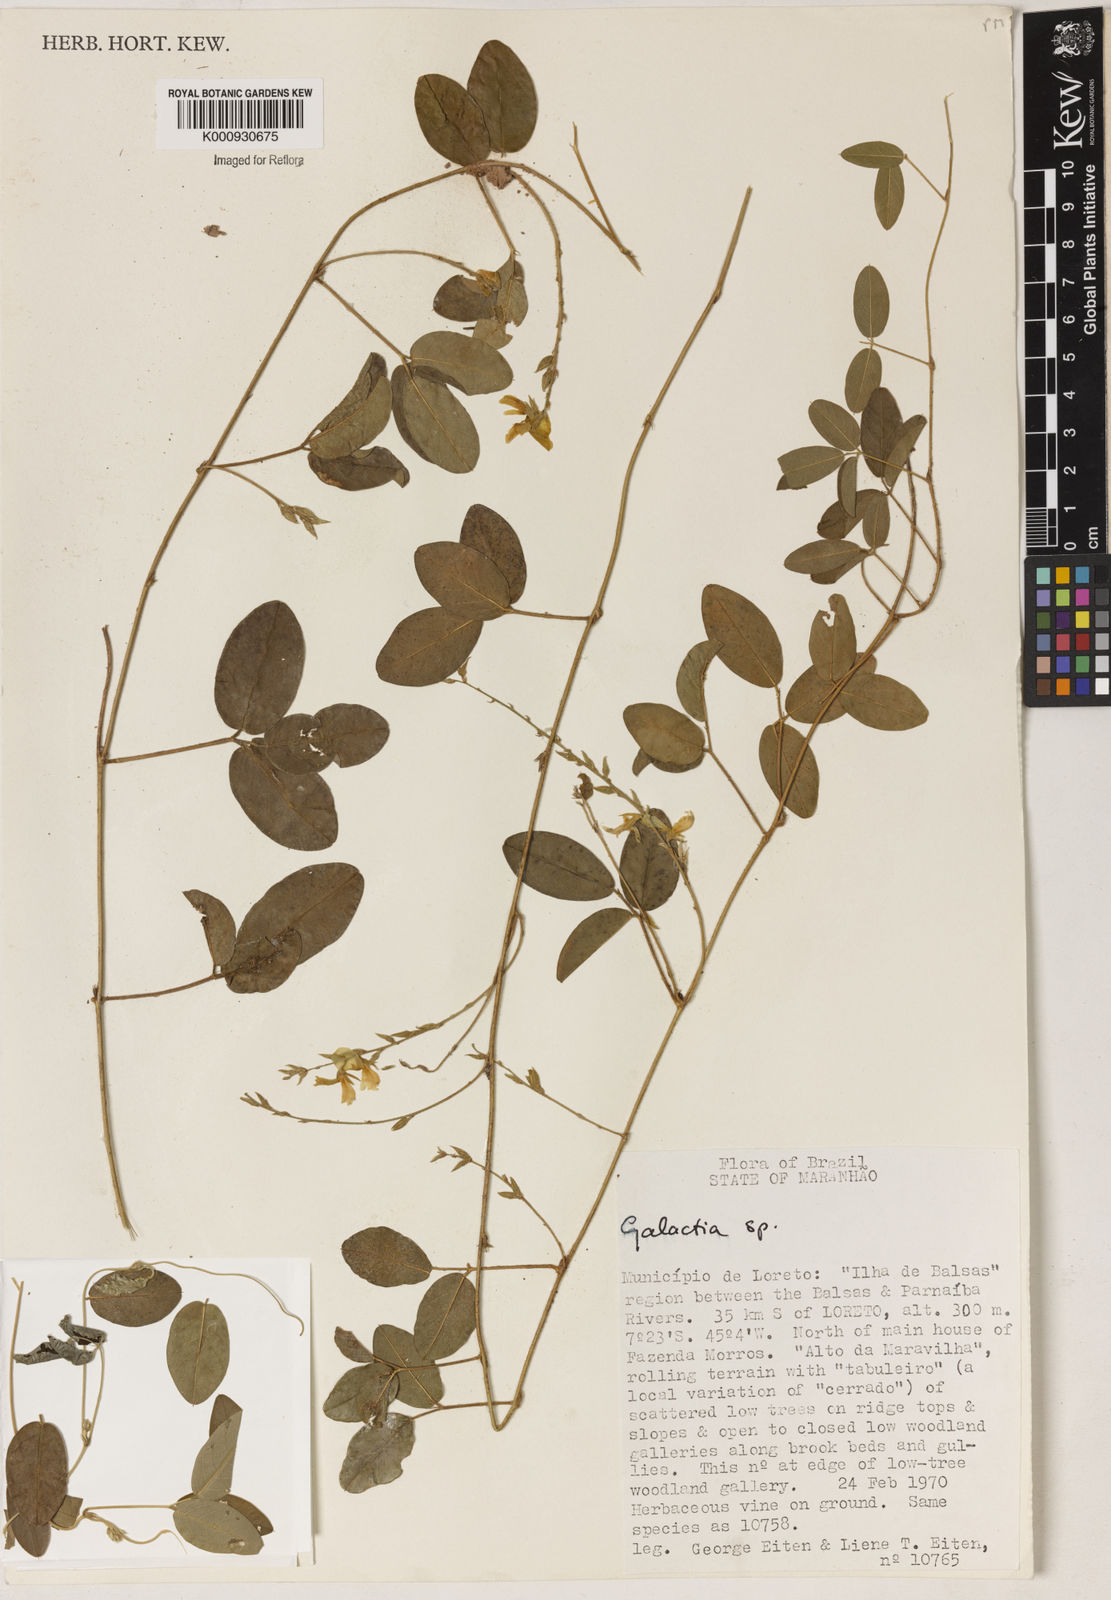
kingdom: Plantae
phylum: Tracheophyta
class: Magnoliopsida
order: Fabales
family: Fabaceae
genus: Galactia
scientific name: Galactia
